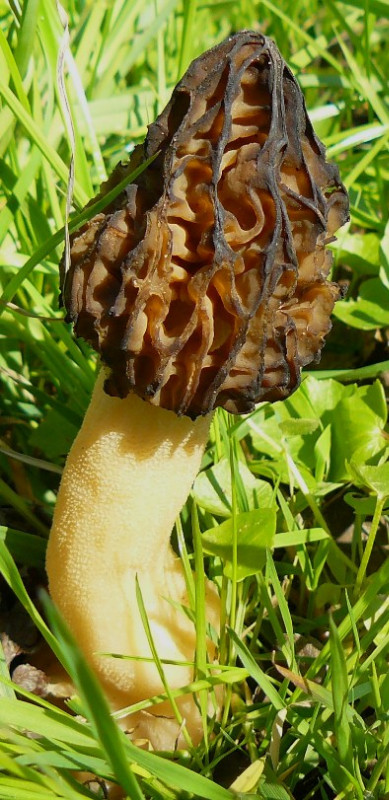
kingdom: Fungi
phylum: Ascomycota
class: Pezizomycetes
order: Pezizales
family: Morchellaceae
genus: Morchella
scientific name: Morchella semilibera
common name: hætte-morkel
